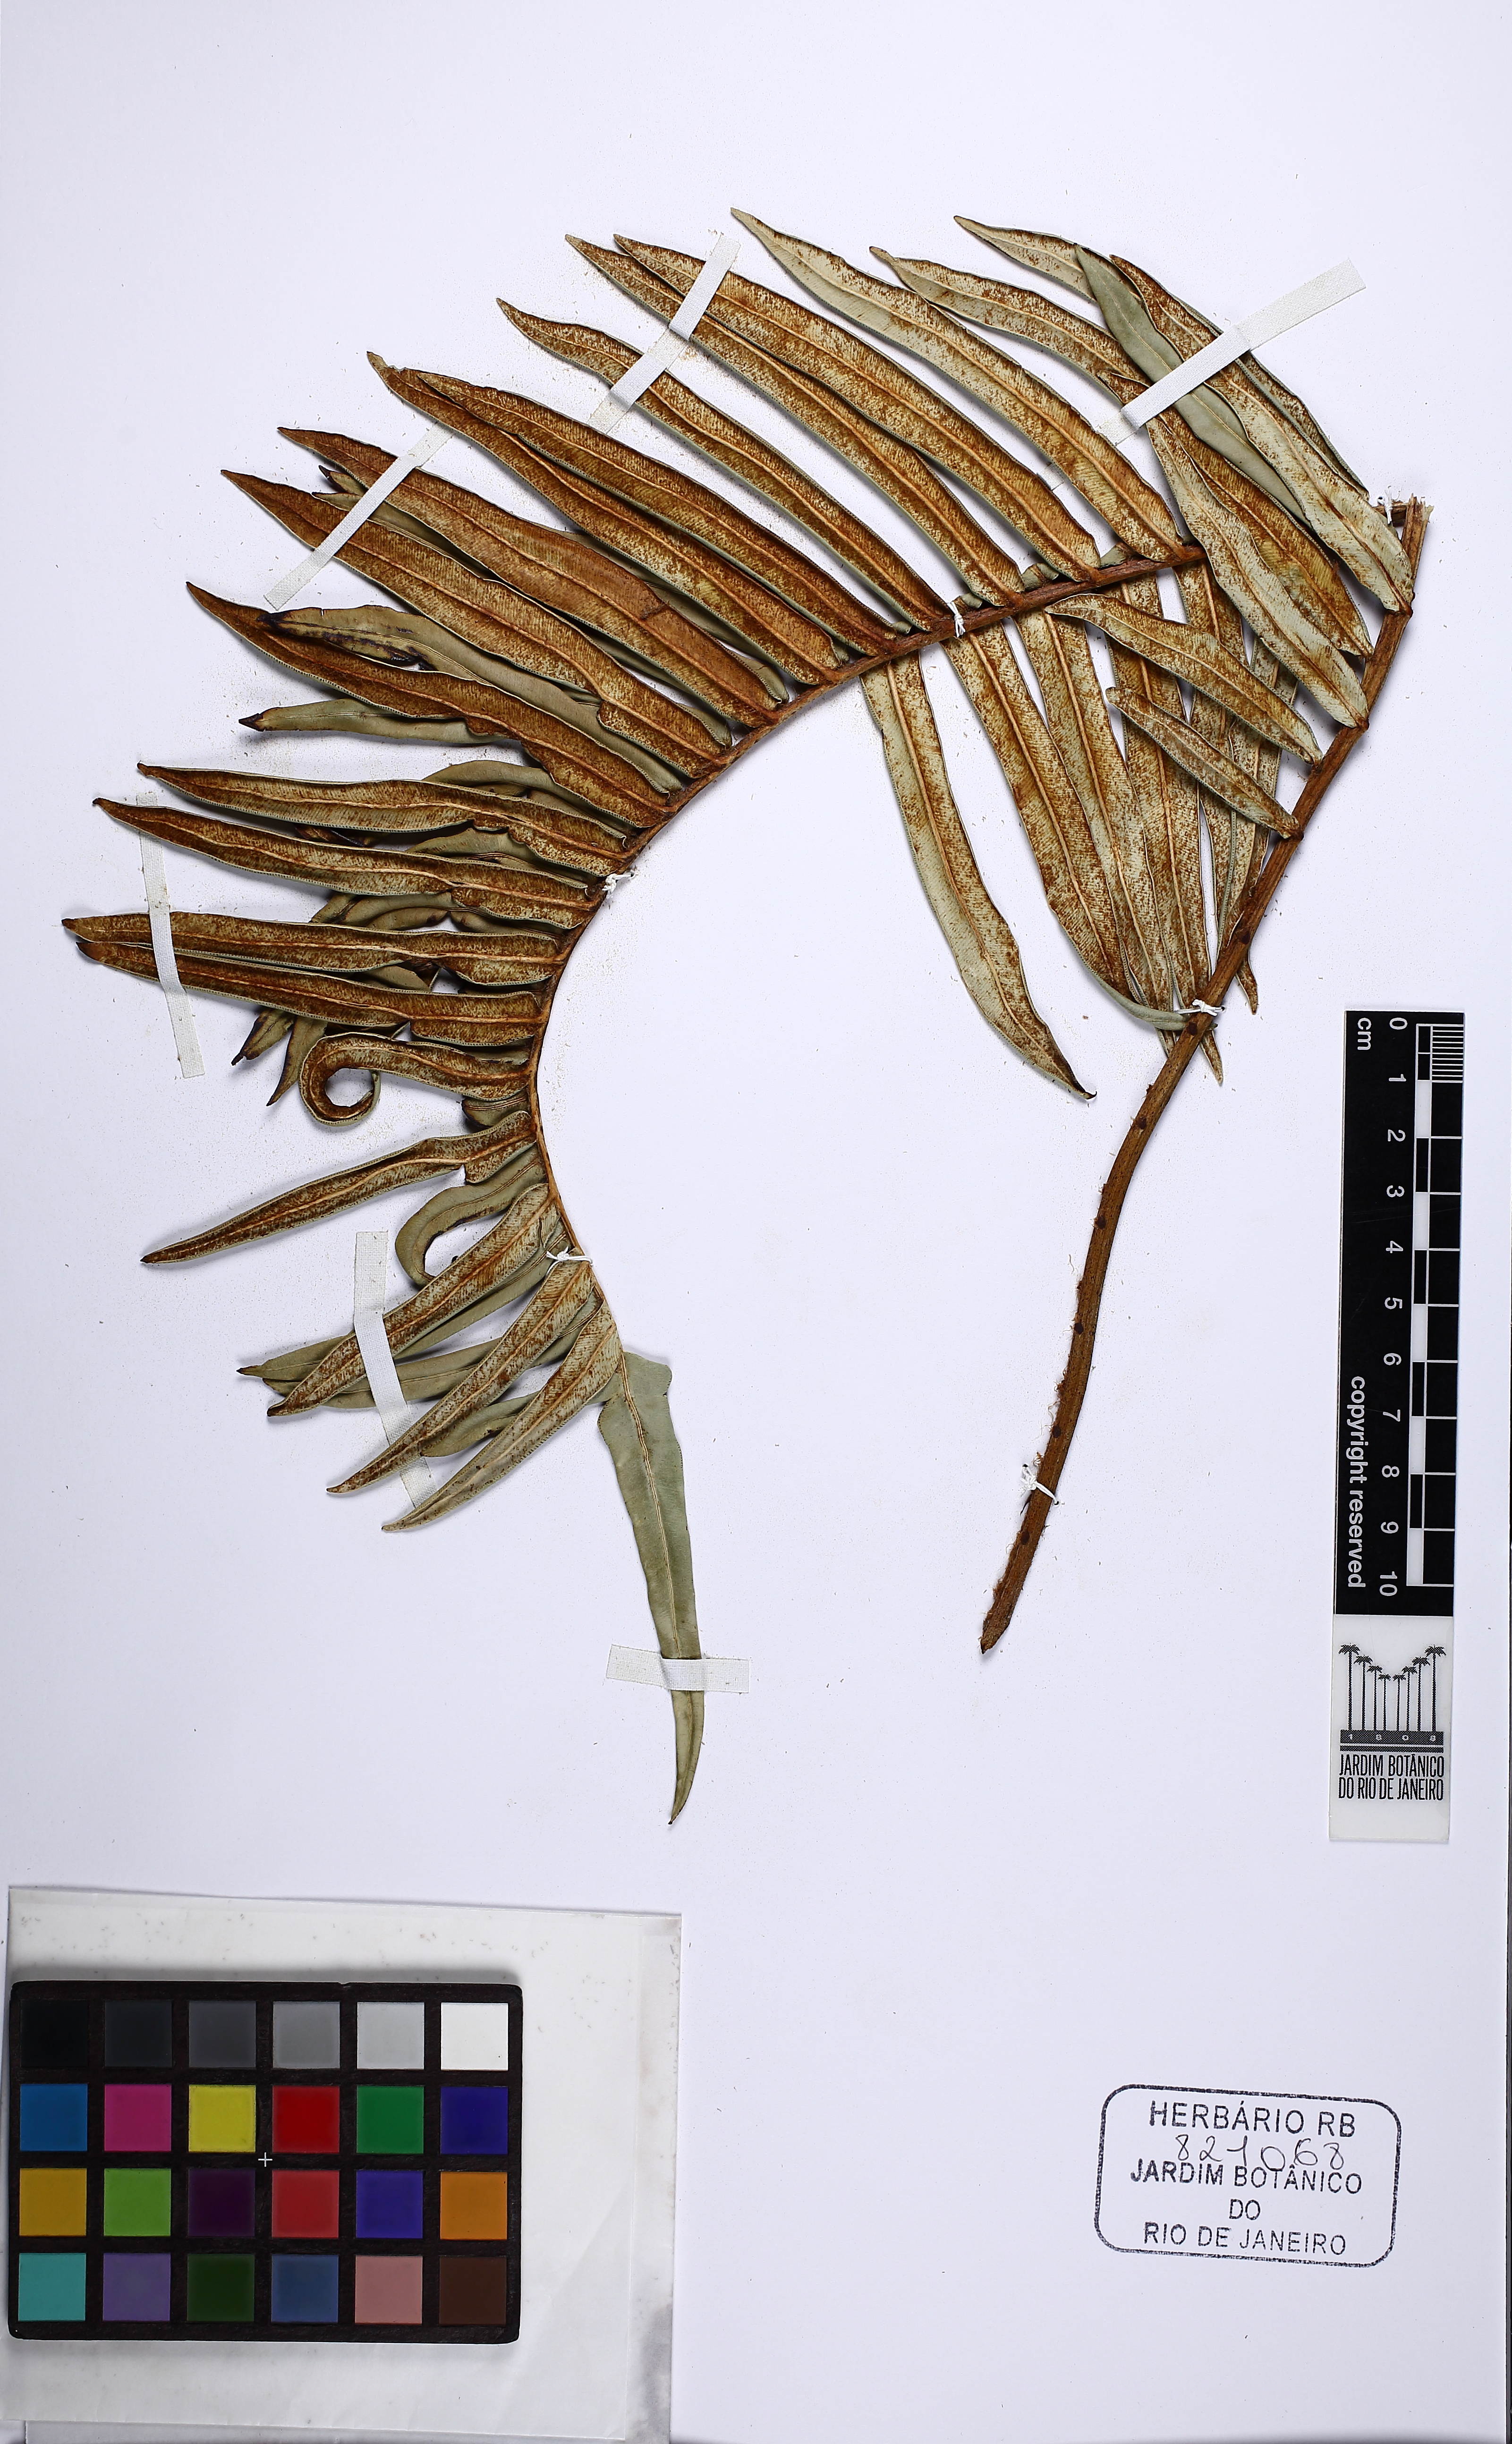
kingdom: Plantae
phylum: Tracheophyta
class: Polypodiopsida
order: Polypodiales
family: Blechnaceae
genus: Lomariocycas
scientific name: Lomariocycas schomburgkii
